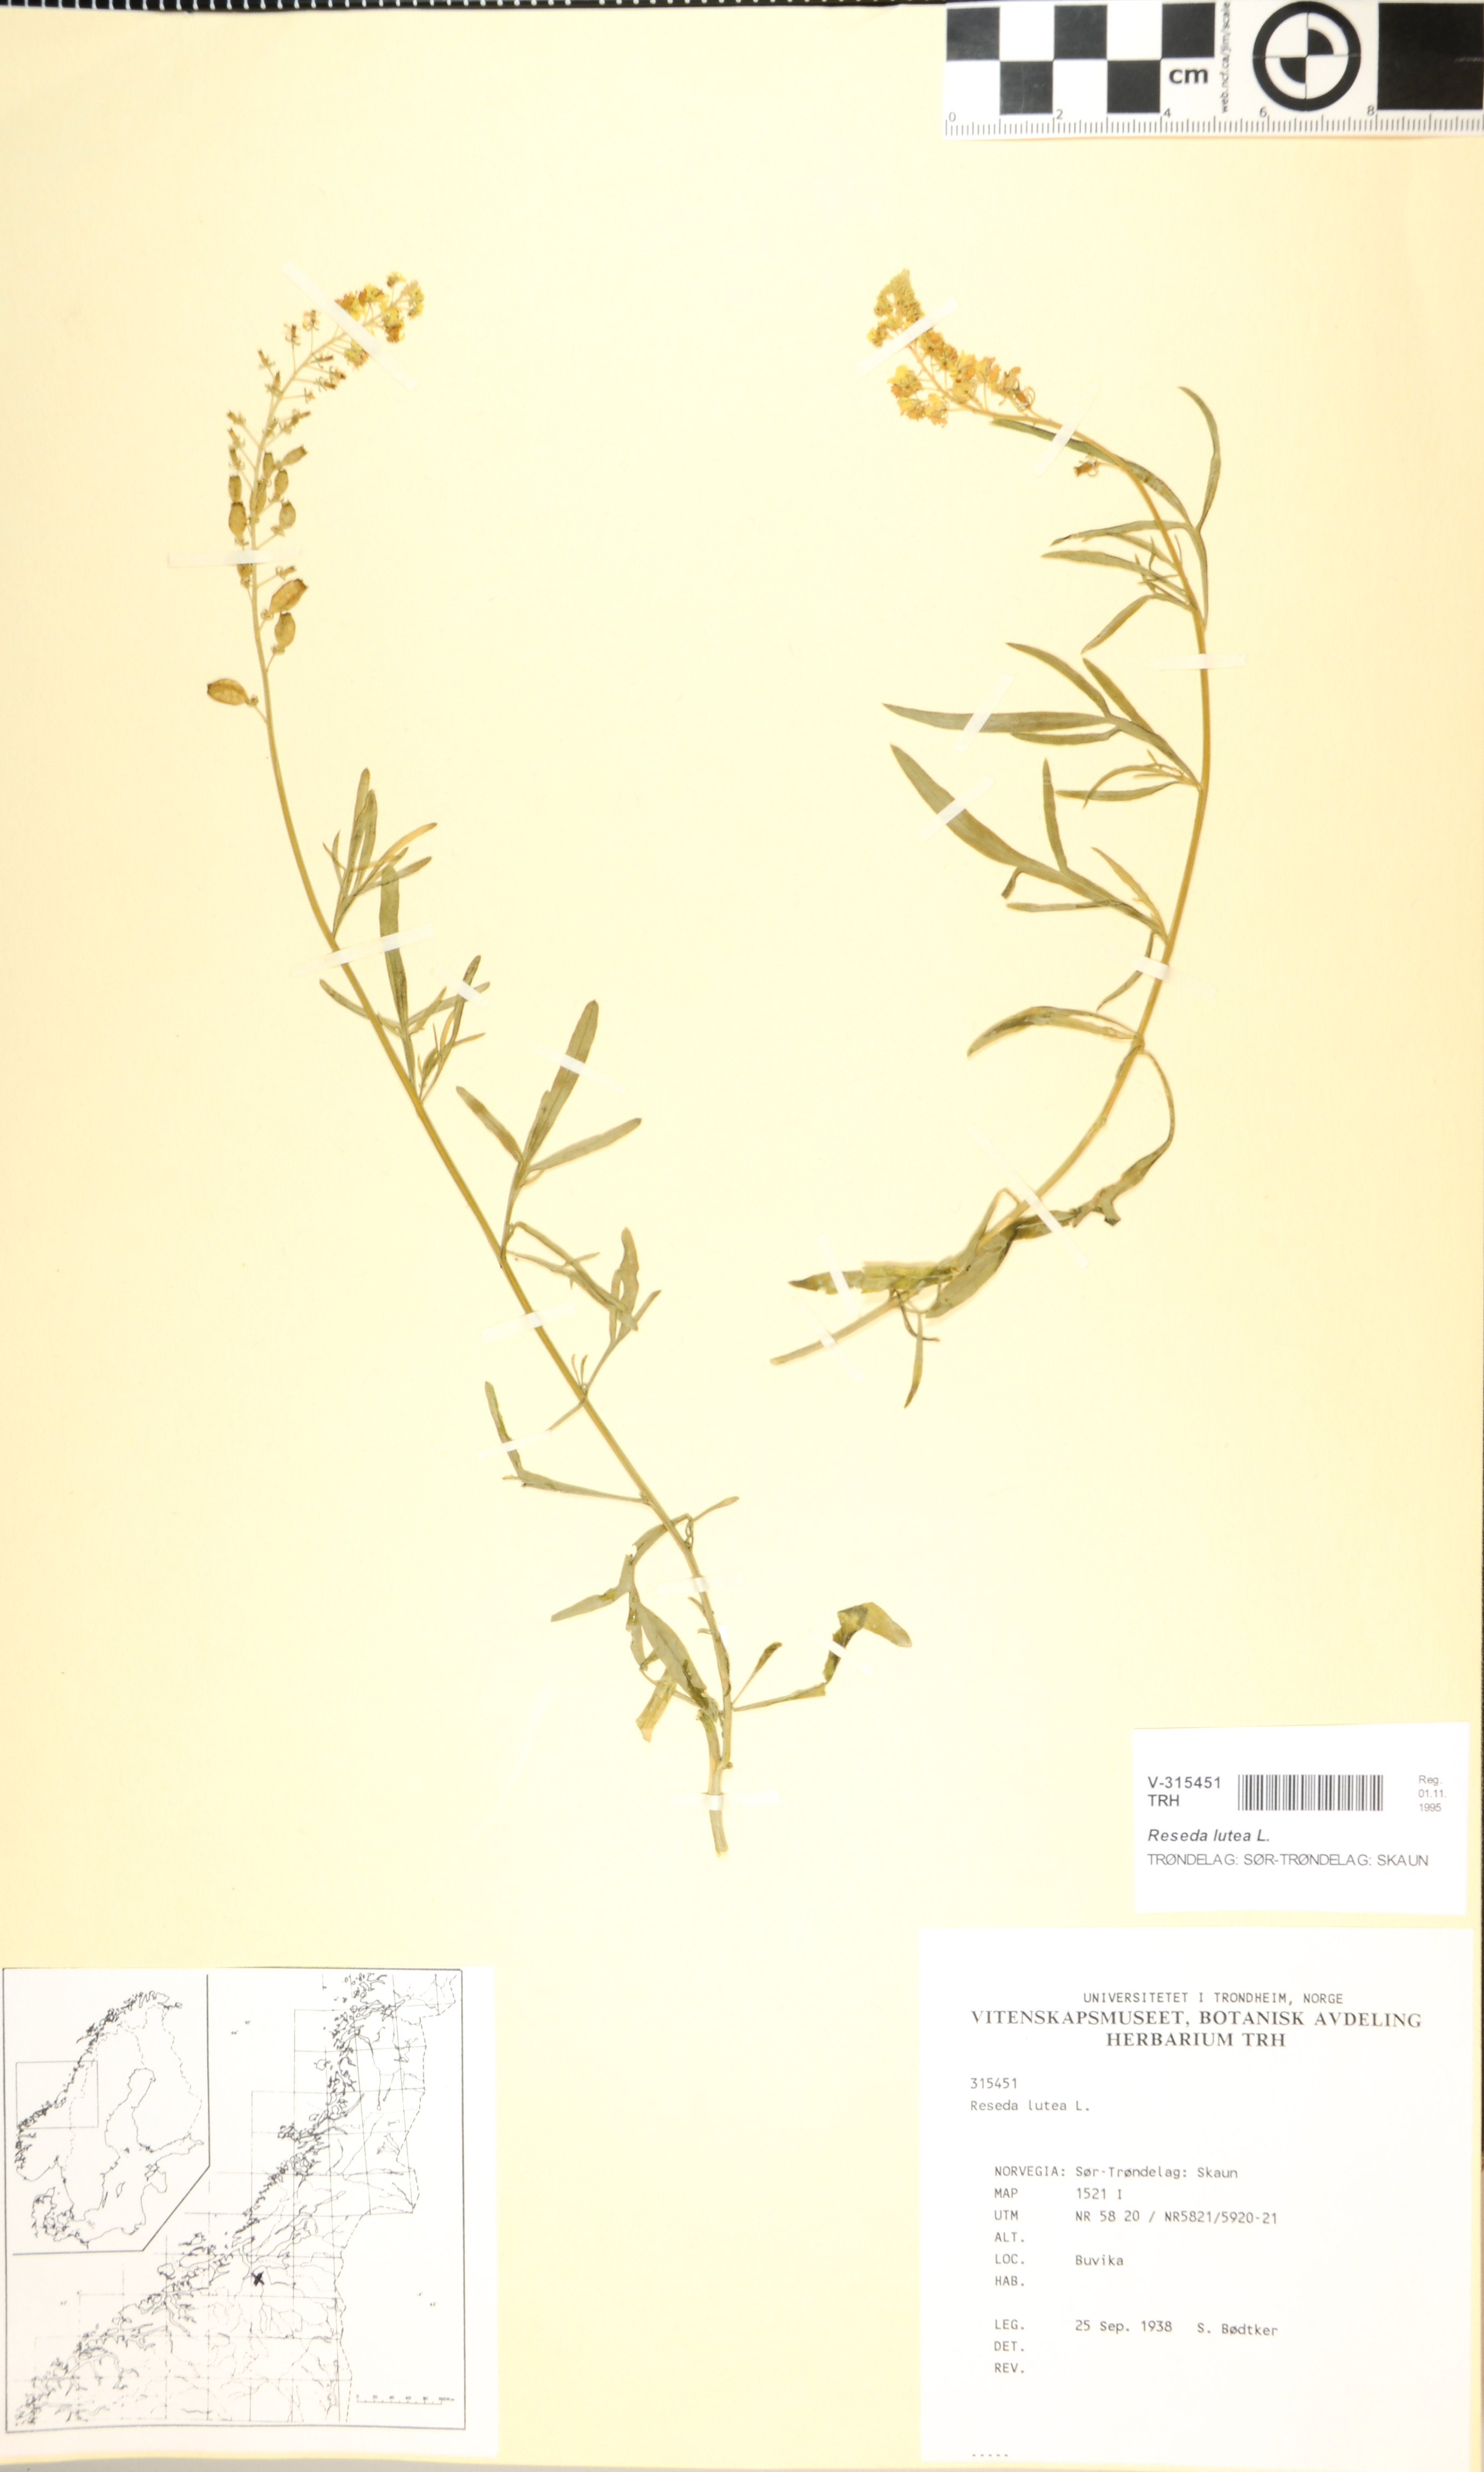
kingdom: Plantae
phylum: Tracheophyta
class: Magnoliopsida
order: Brassicales
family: Resedaceae
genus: Reseda
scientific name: Reseda lutea
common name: Wild mignonette
